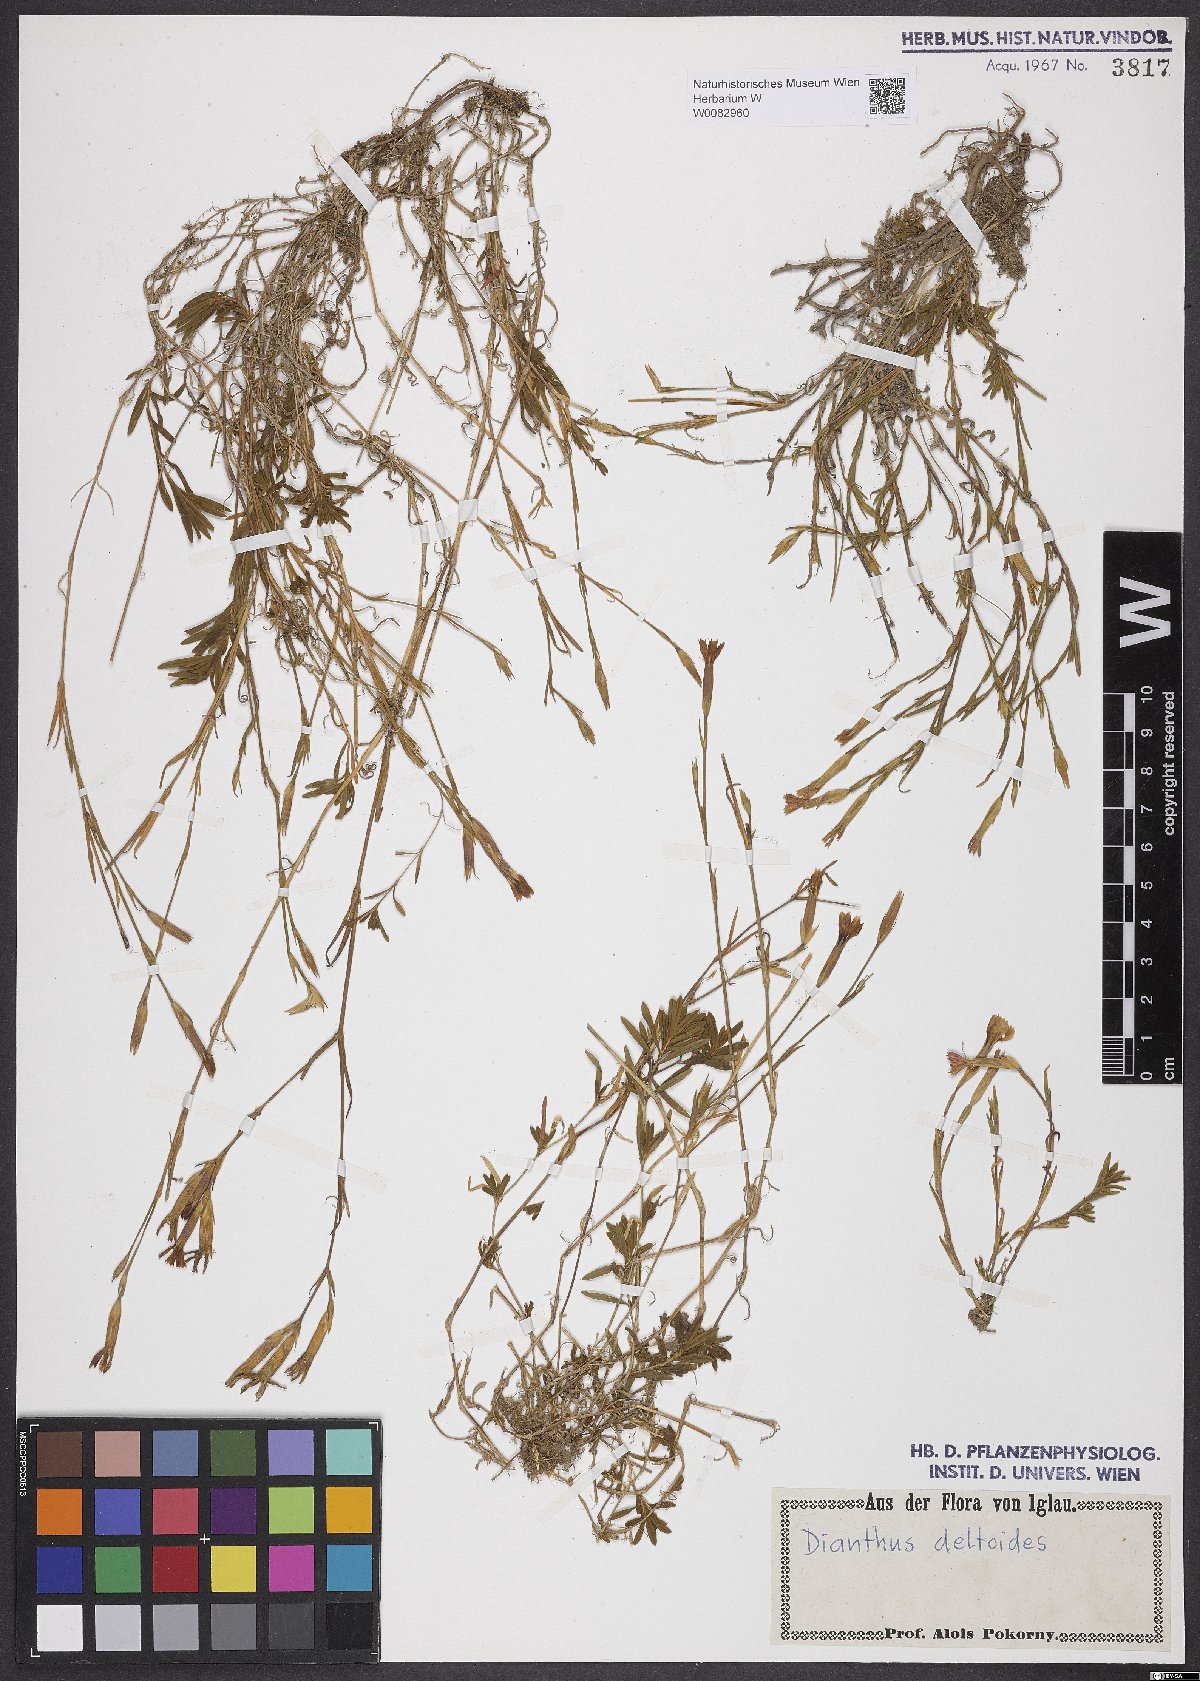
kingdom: Plantae
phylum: Tracheophyta
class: Magnoliopsida
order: Caryophyllales
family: Caryophyllaceae
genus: Dianthus
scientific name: Dianthus deltoides
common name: Maiden pink
